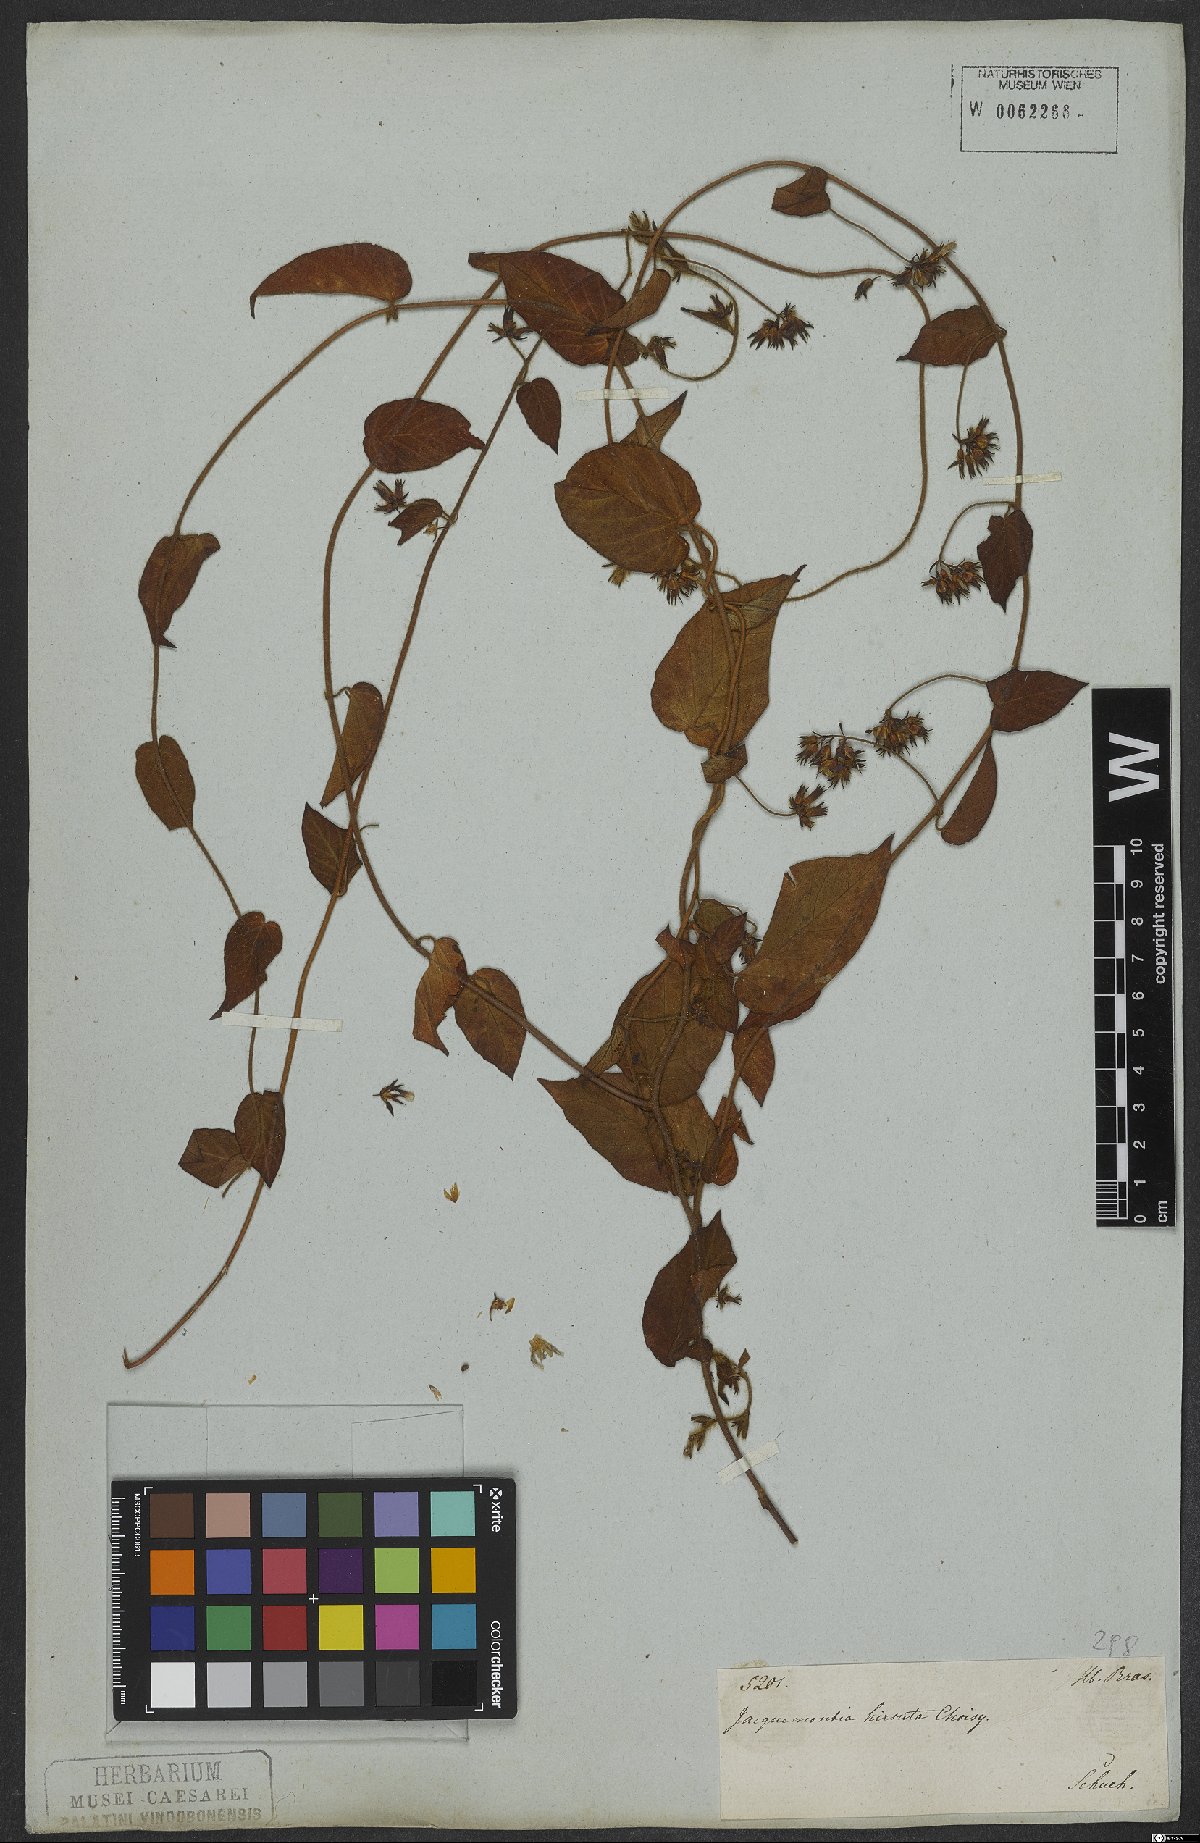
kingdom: Plantae
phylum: Tracheophyta
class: Magnoliopsida
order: Solanales
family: Convolvulaceae
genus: Jacquemontia
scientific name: Jacquemontia sphaerostigma
